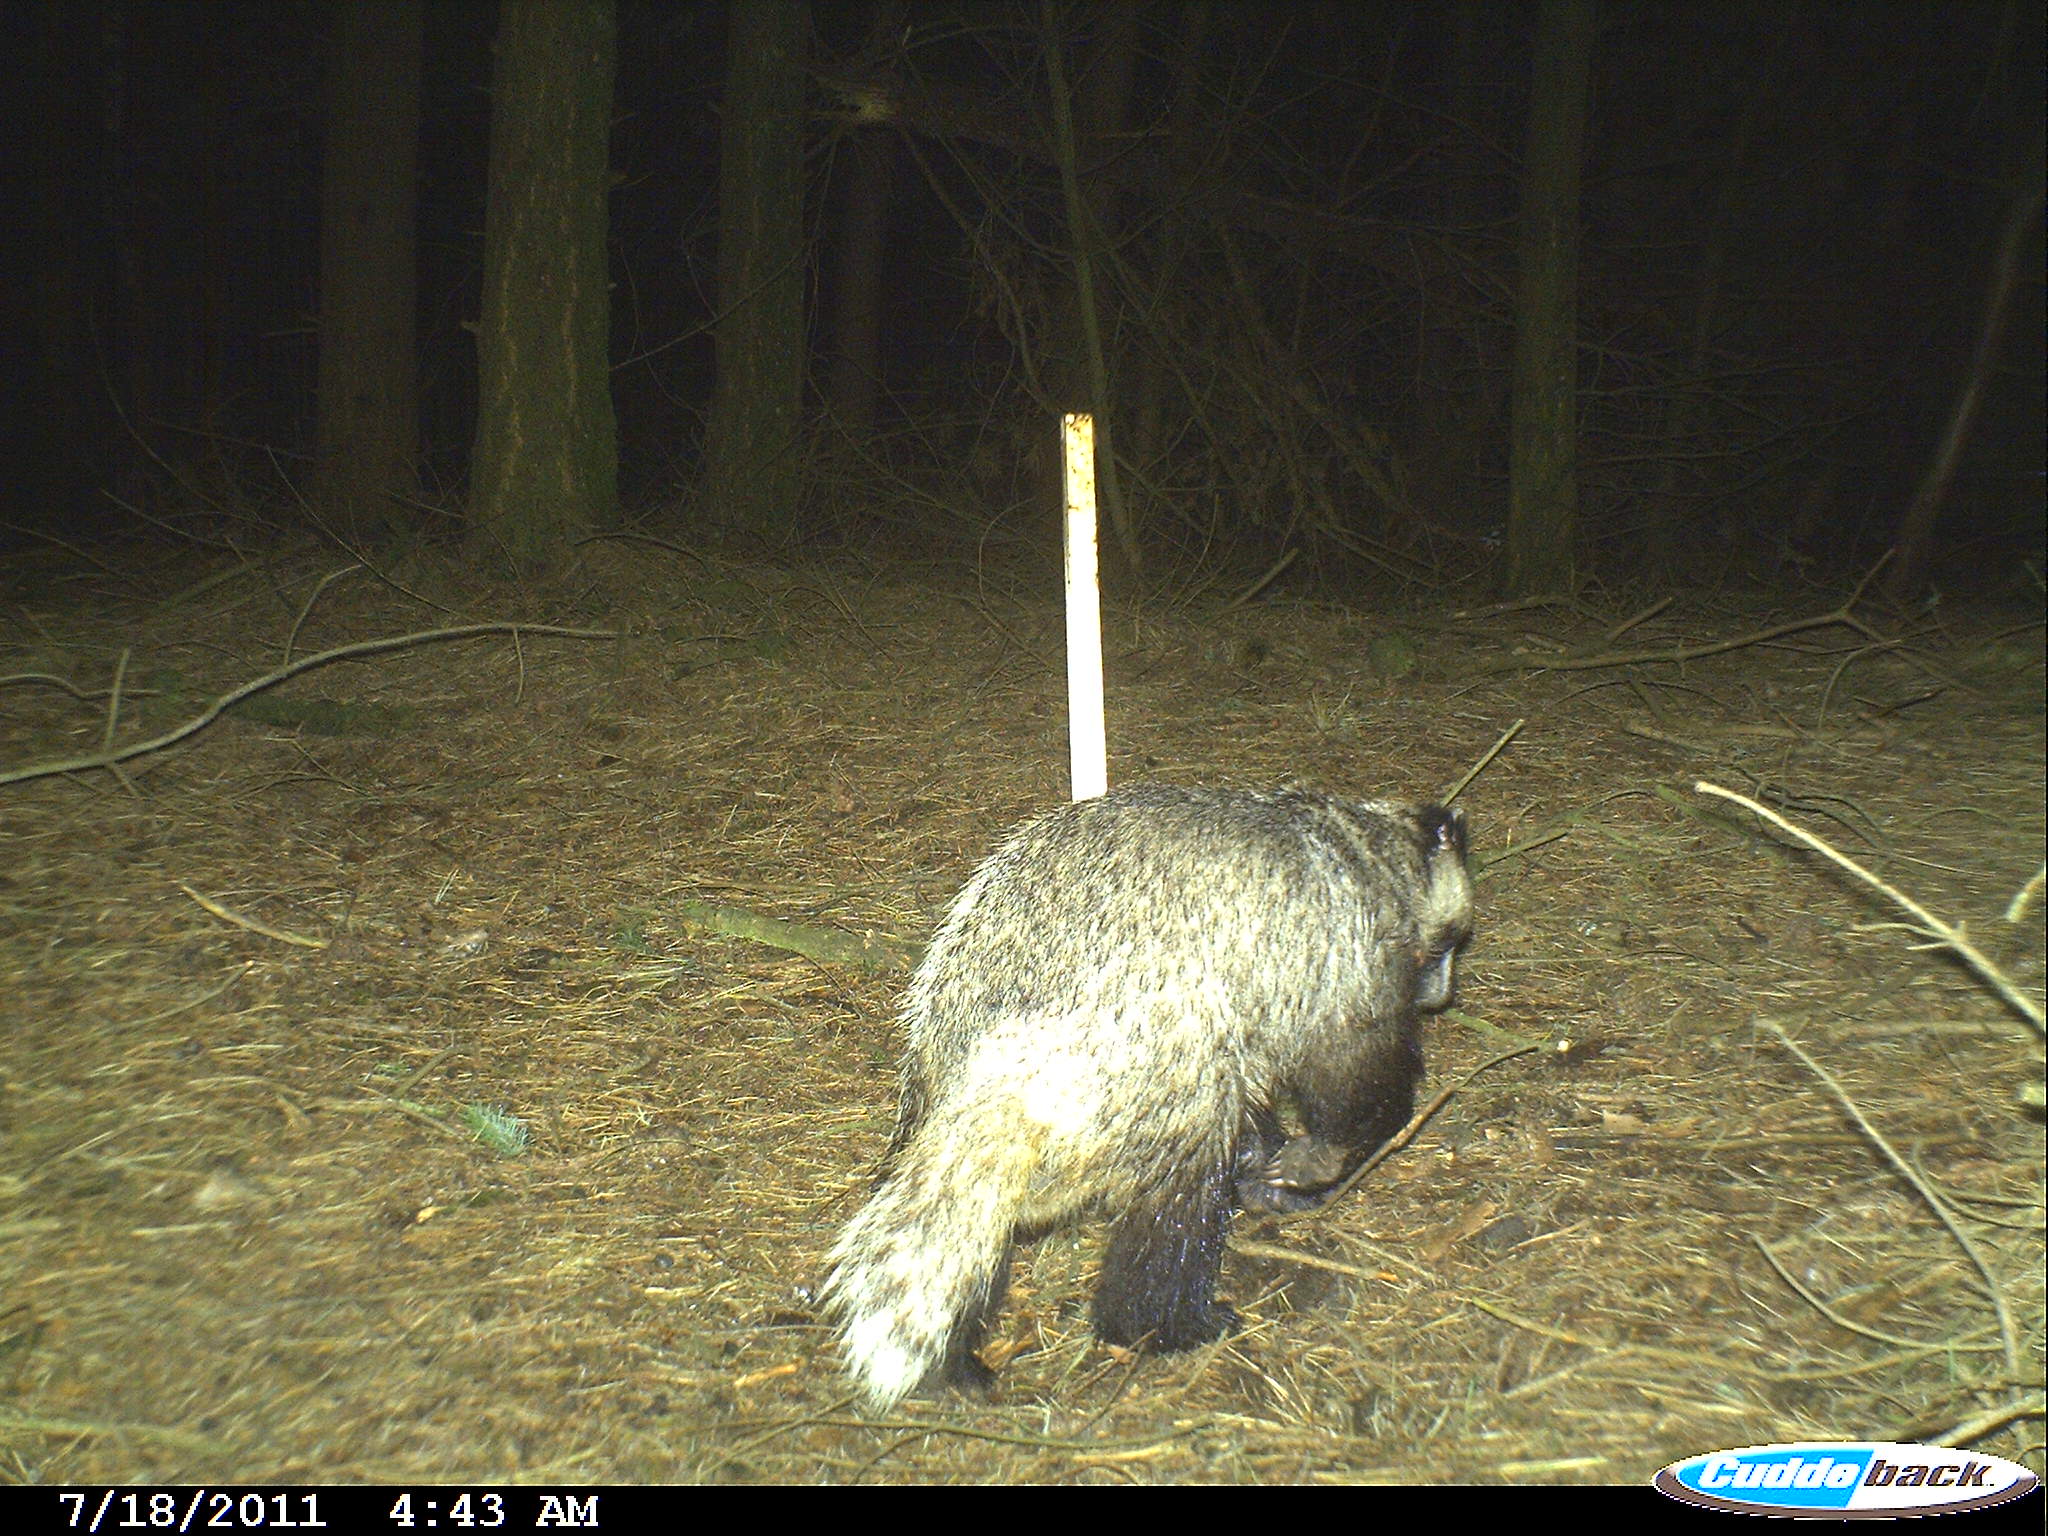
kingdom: Animalia
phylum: Chordata
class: Mammalia
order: Carnivora
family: Mustelidae
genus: Meles
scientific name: Meles meles
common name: Eurasian badger
